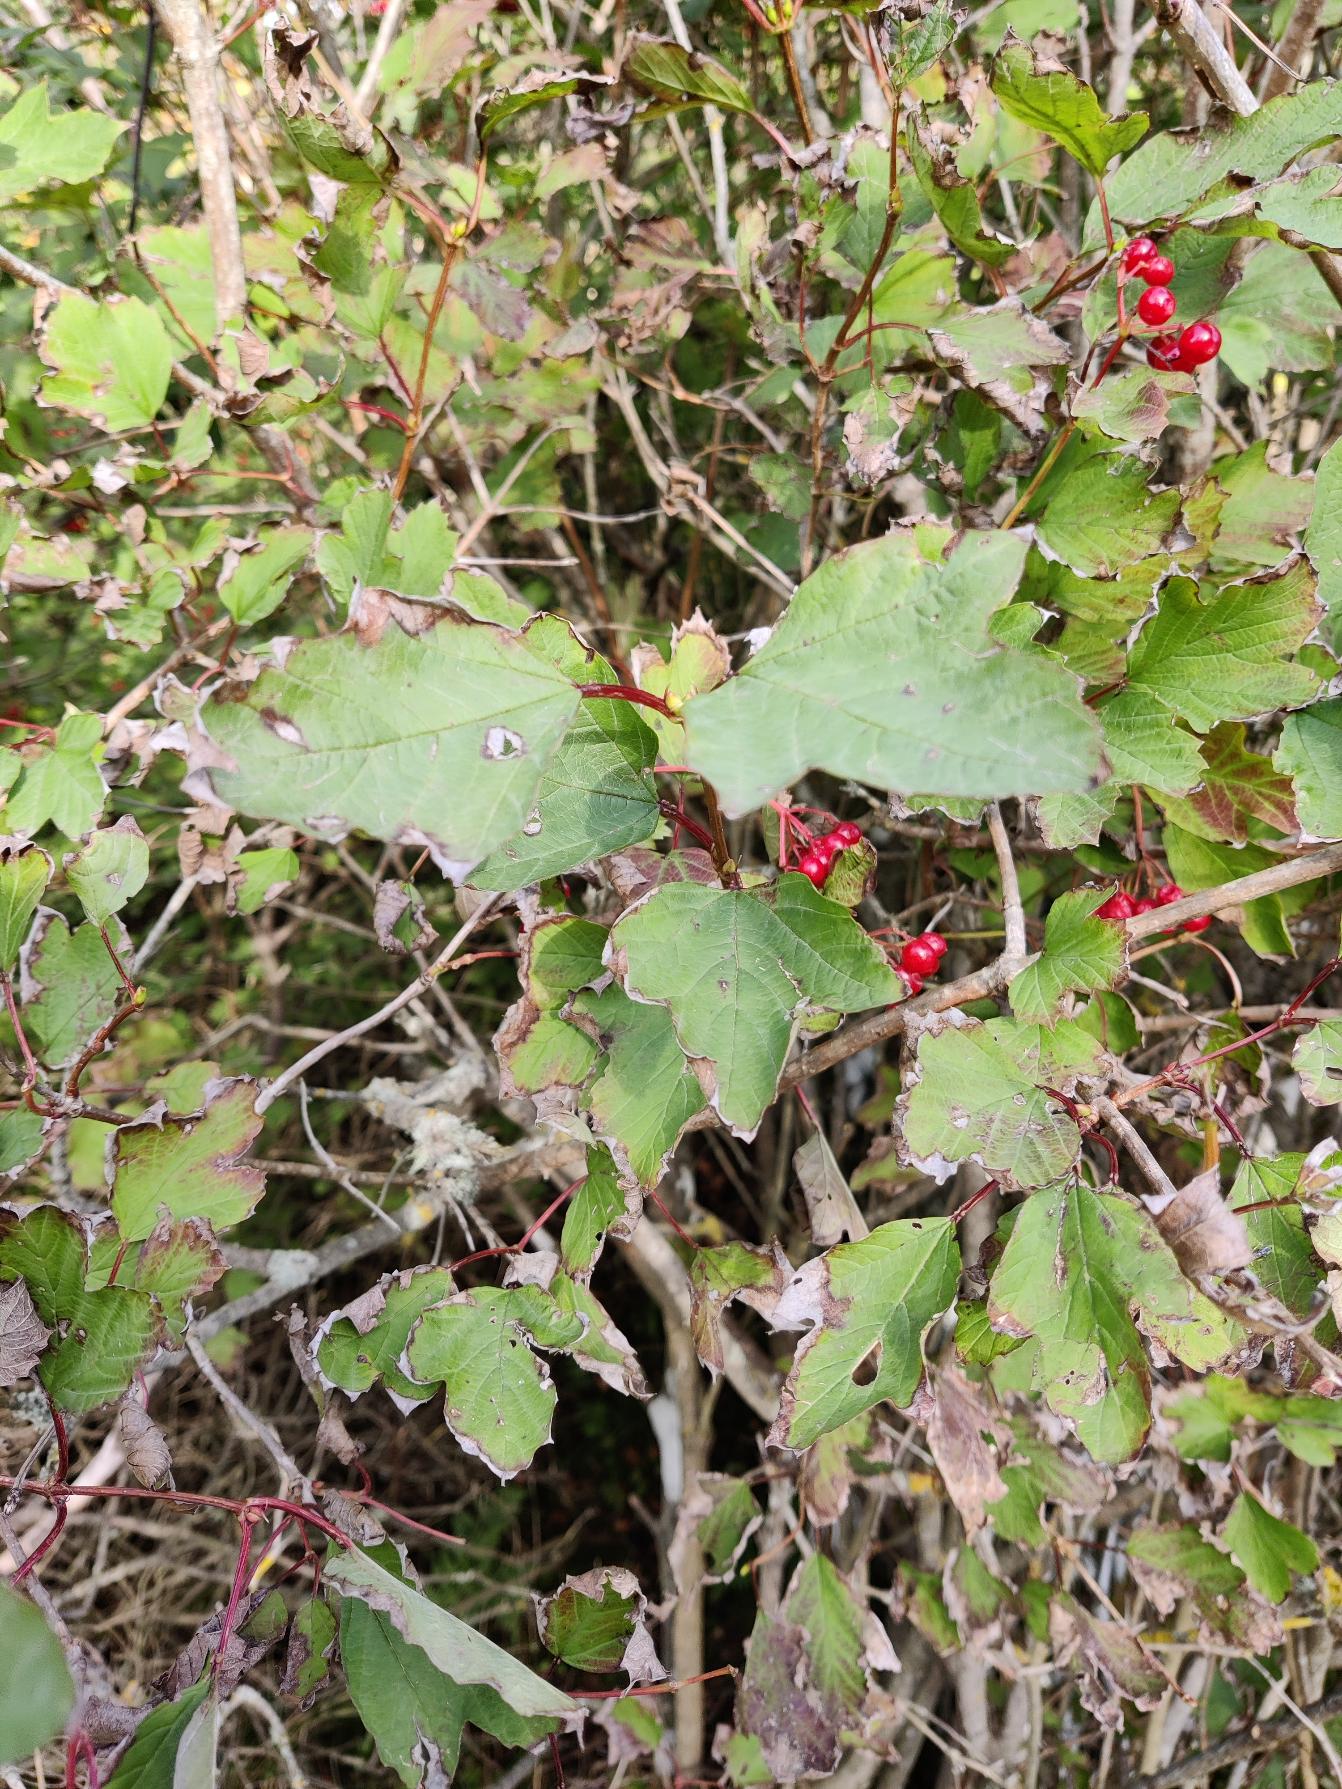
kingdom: Plantae
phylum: Tracheophyta
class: Magnoliopsida
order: Dipsacales
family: Viburnaceae
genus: Viburnum
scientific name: Viburnum opulus
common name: Kvalkved
